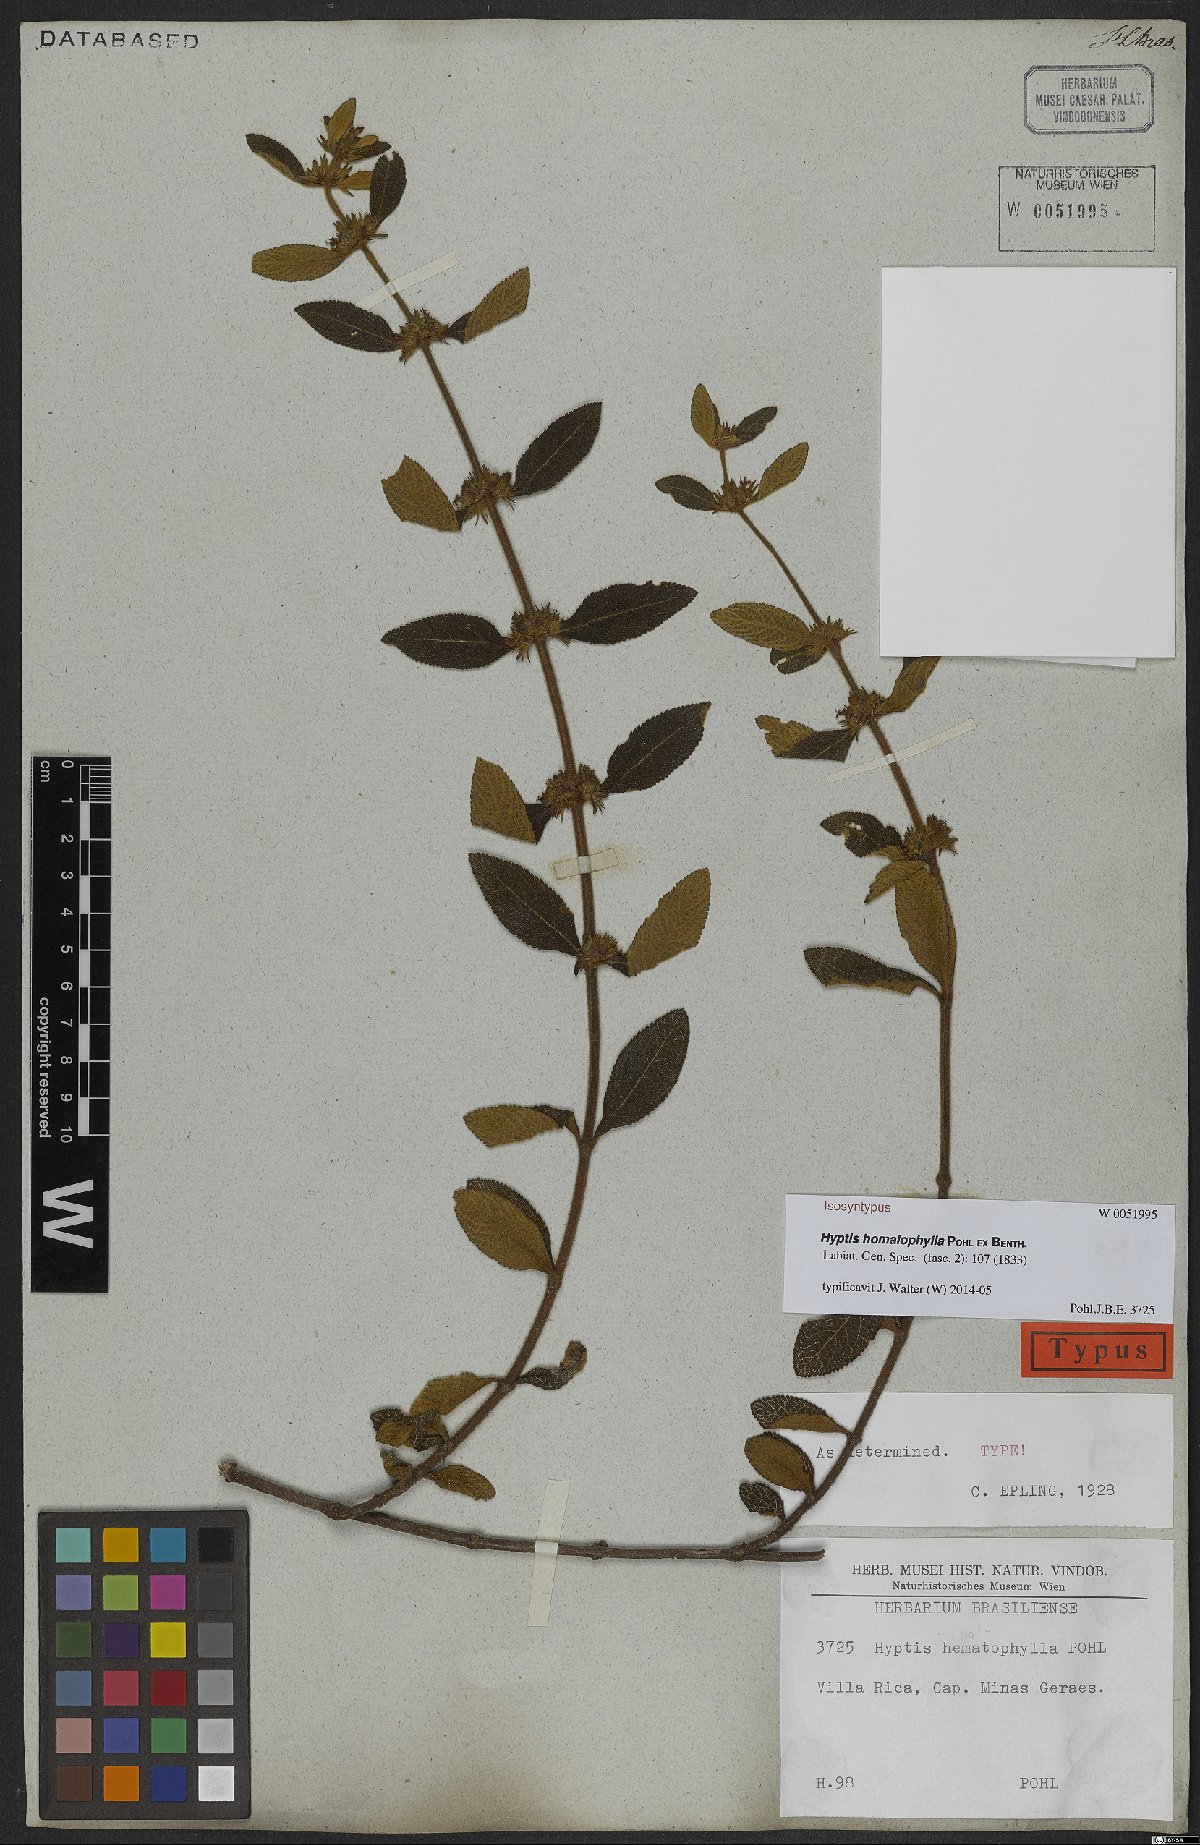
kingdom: Plantae
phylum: Tracheophyta
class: Magnoliopsida
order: Lamiales
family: Lamiaceae
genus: Hyptis
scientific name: Hyptis homalophylla
